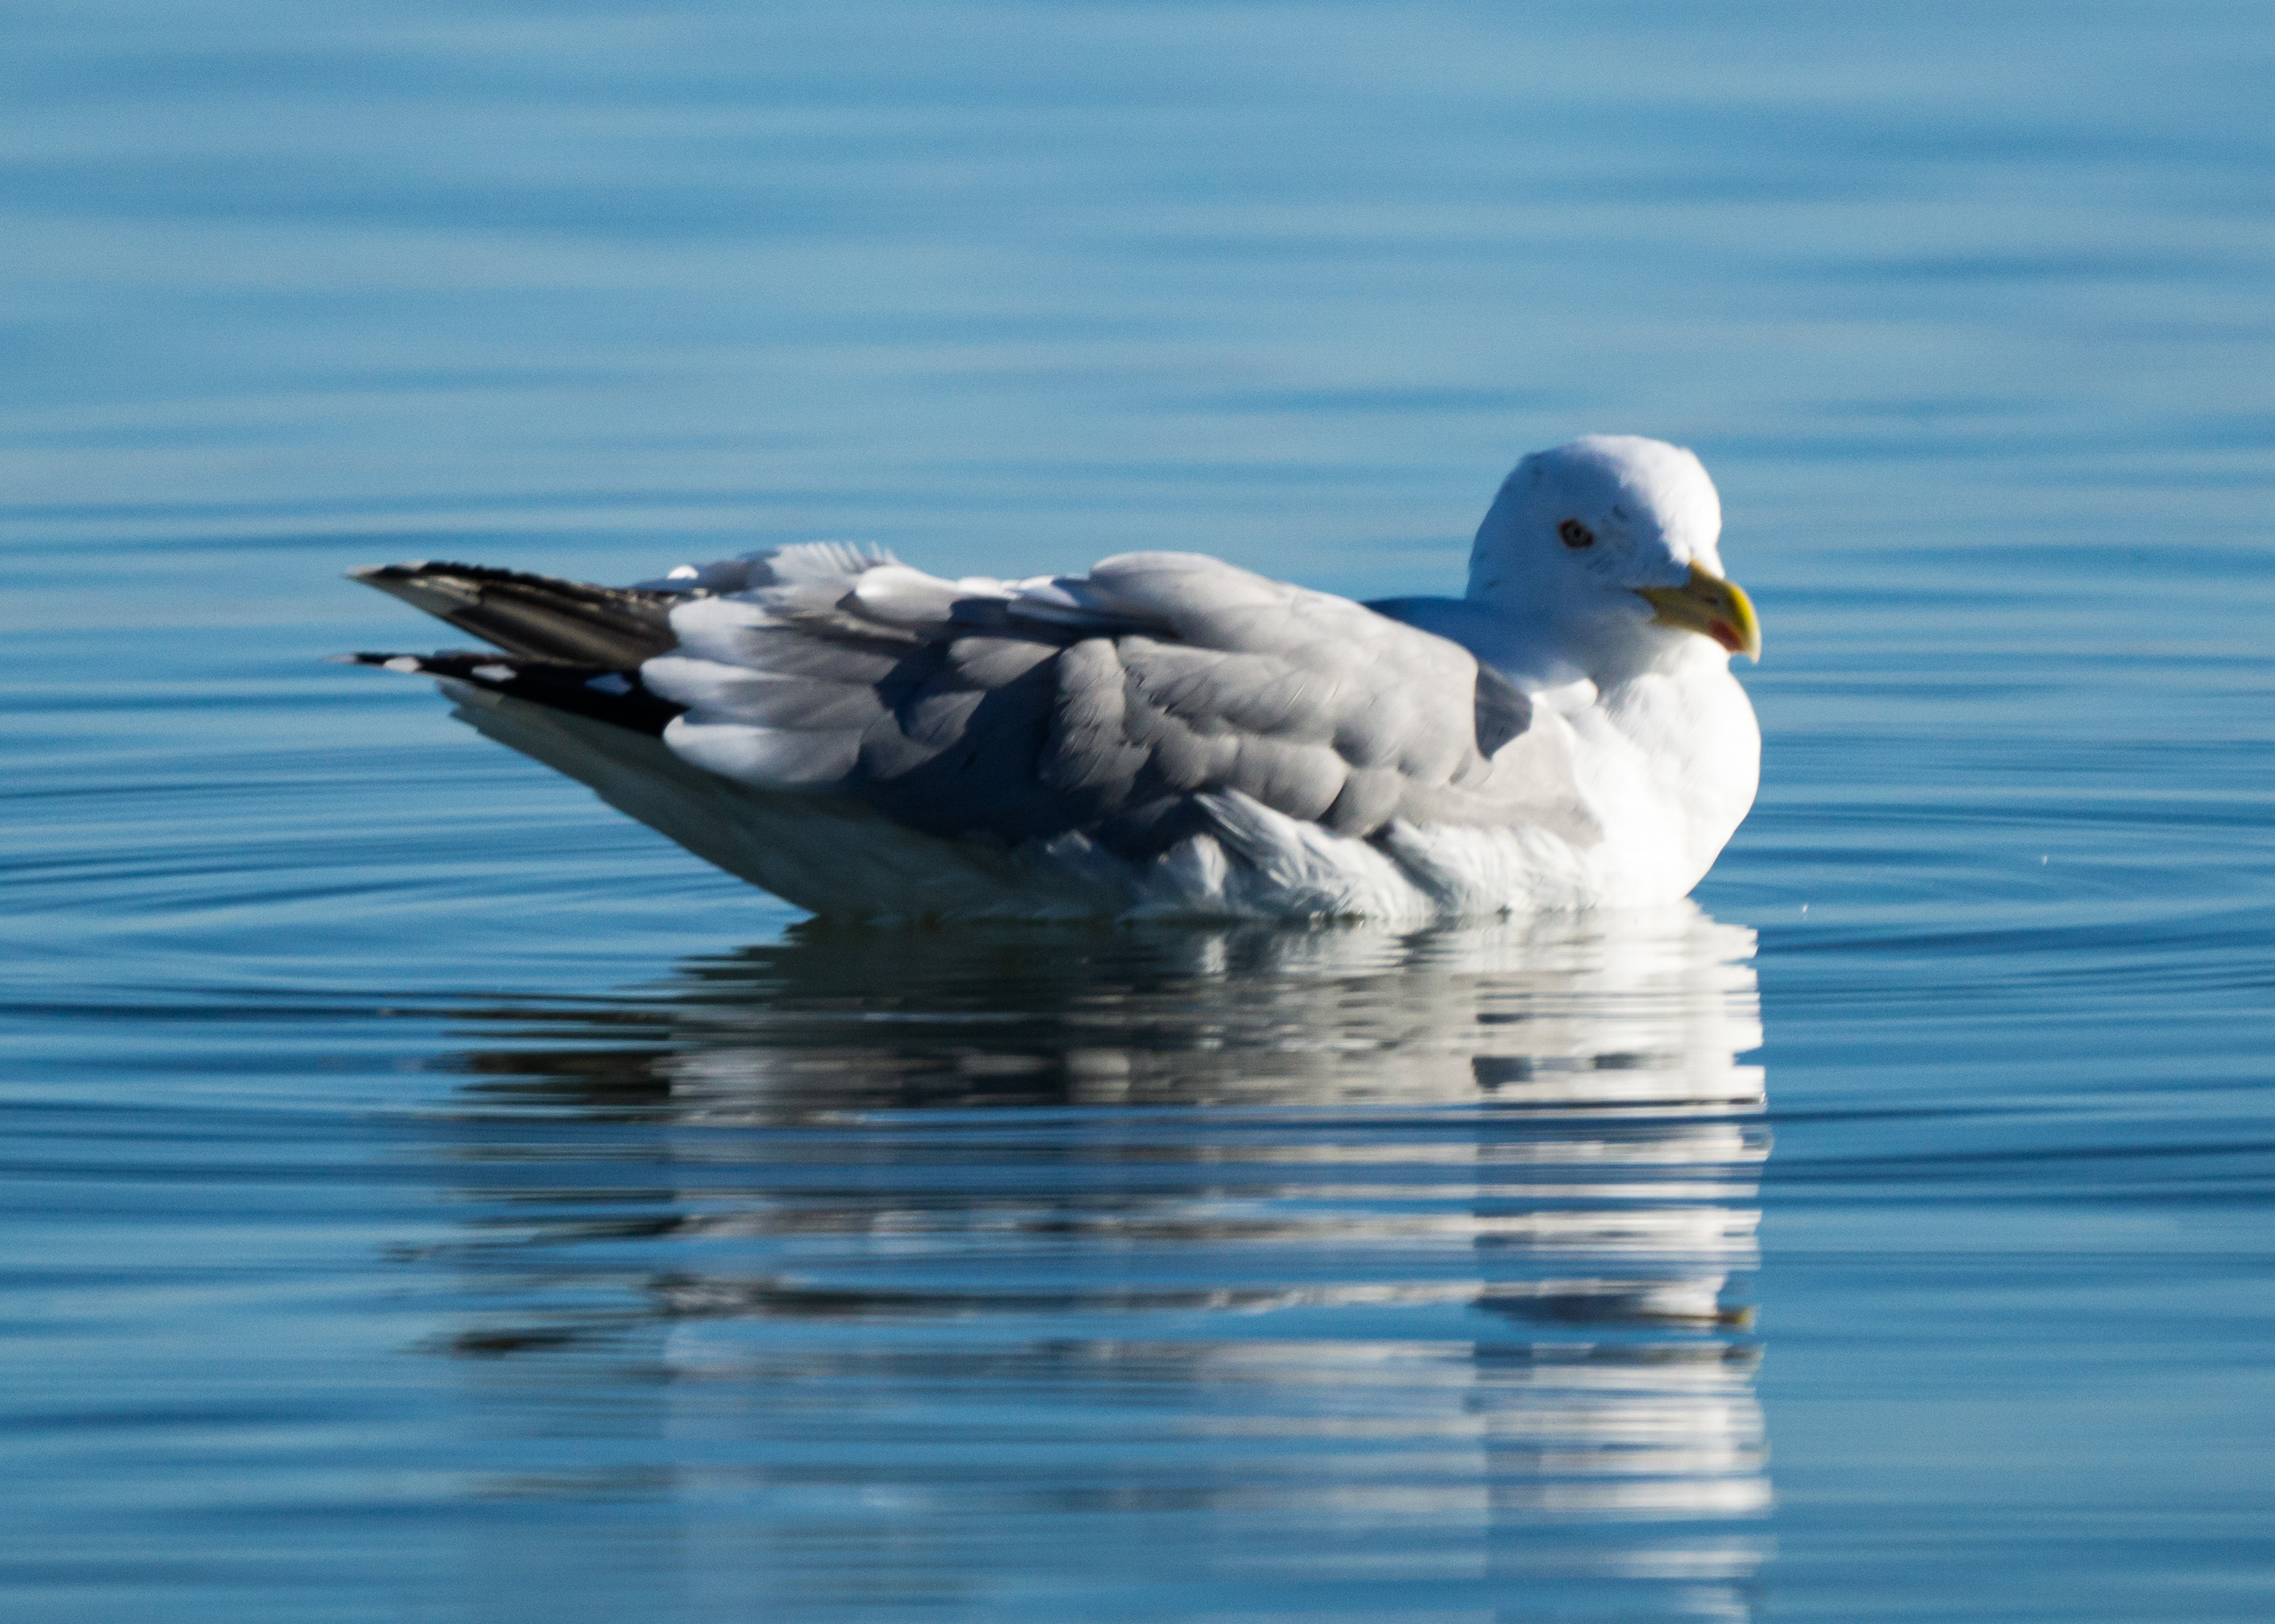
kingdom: Animalia
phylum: Chordata
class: Aves
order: Charadriiformes
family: Laridae
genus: Larus
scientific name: Larus argentatus
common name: Sølvmåge
